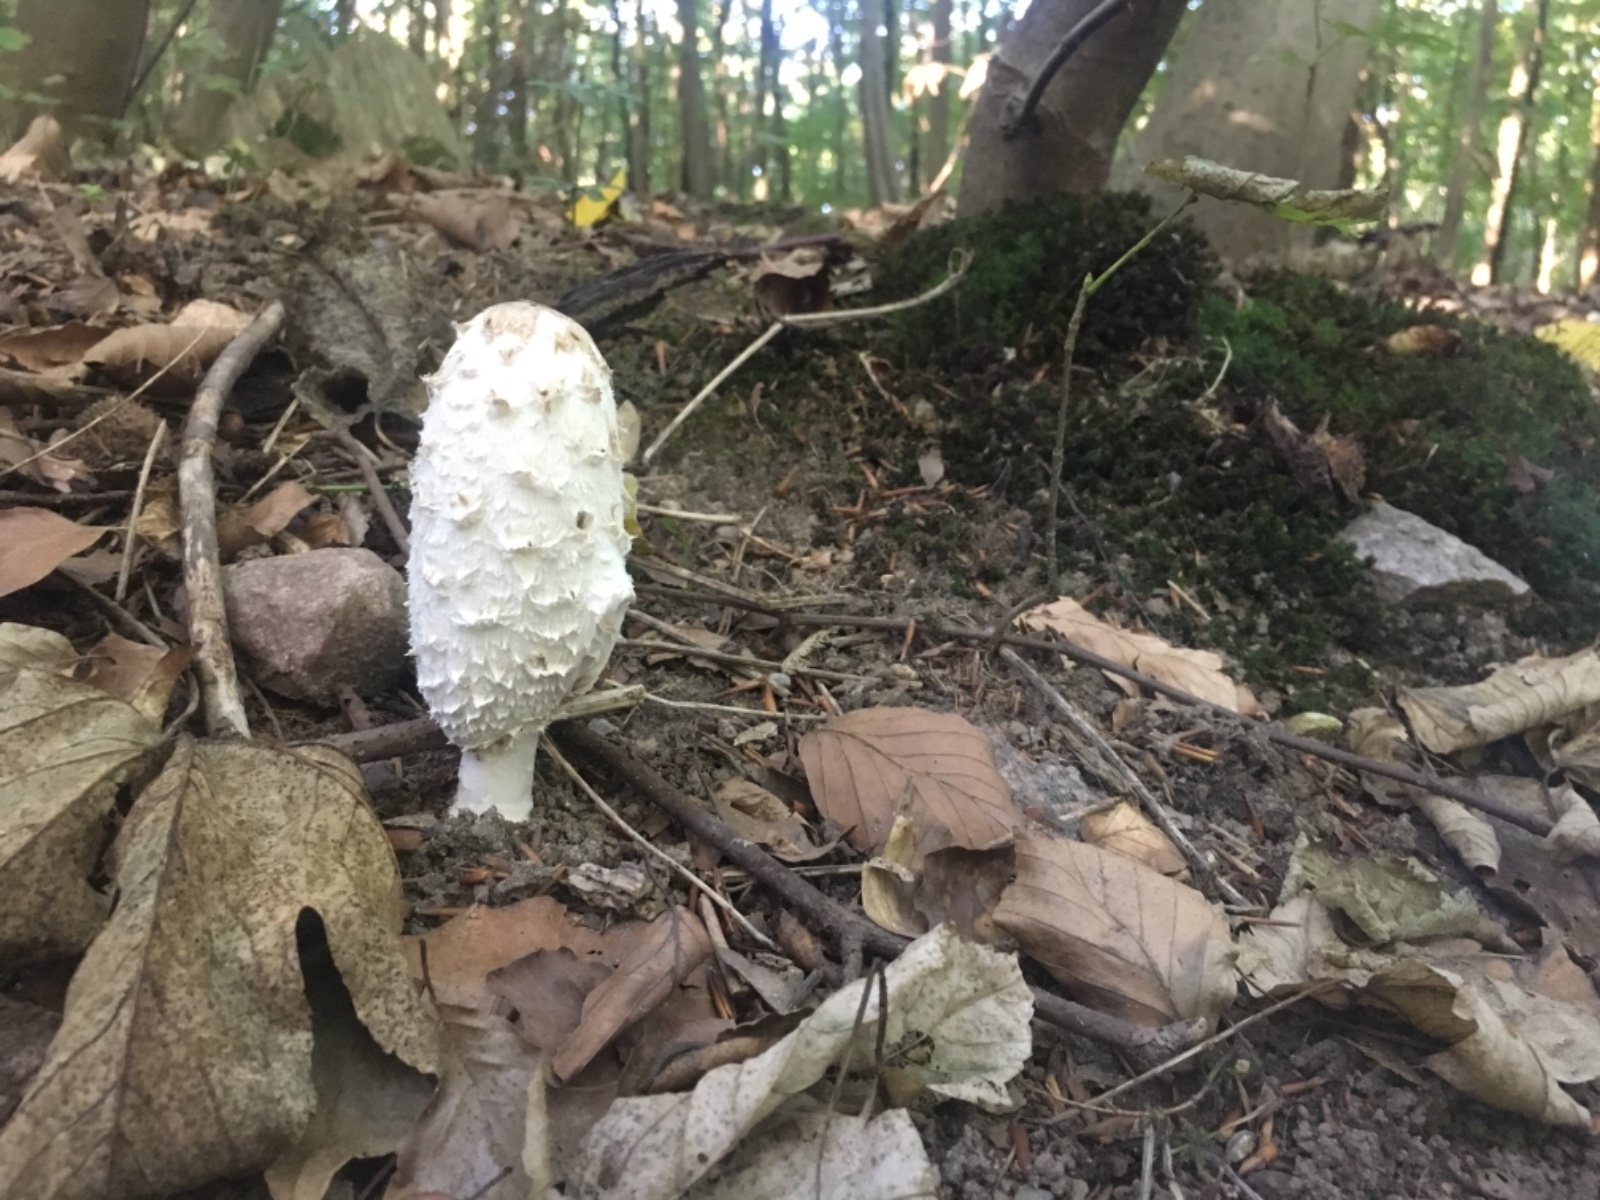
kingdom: Fungi
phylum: Basidiomycota
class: Agaricomycetes
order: Agaricales
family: Agaricaceae
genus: Coprinus
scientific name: Coprinus comatus
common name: stor parykhat
